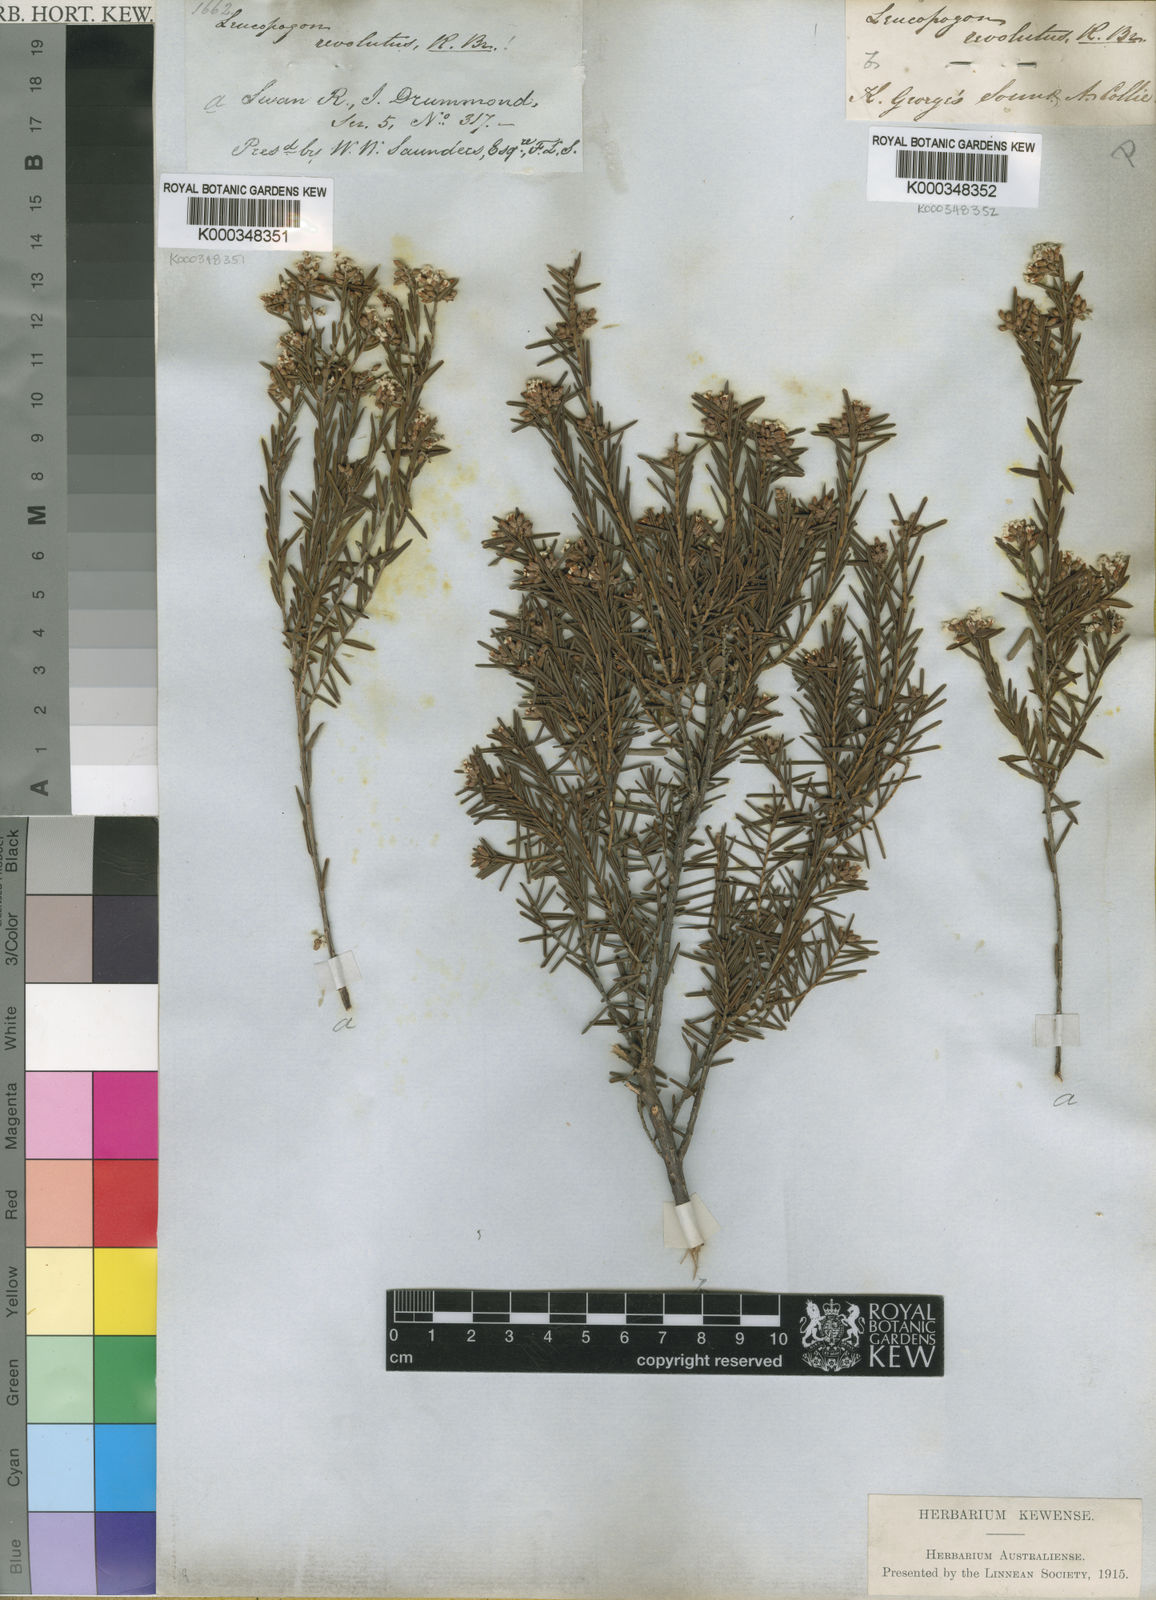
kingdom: Plantae
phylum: Tracheophyta
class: Magnoliopsida
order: Ericales
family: Ericaceae
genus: Leucopogon
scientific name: Leucopogon obovatus
